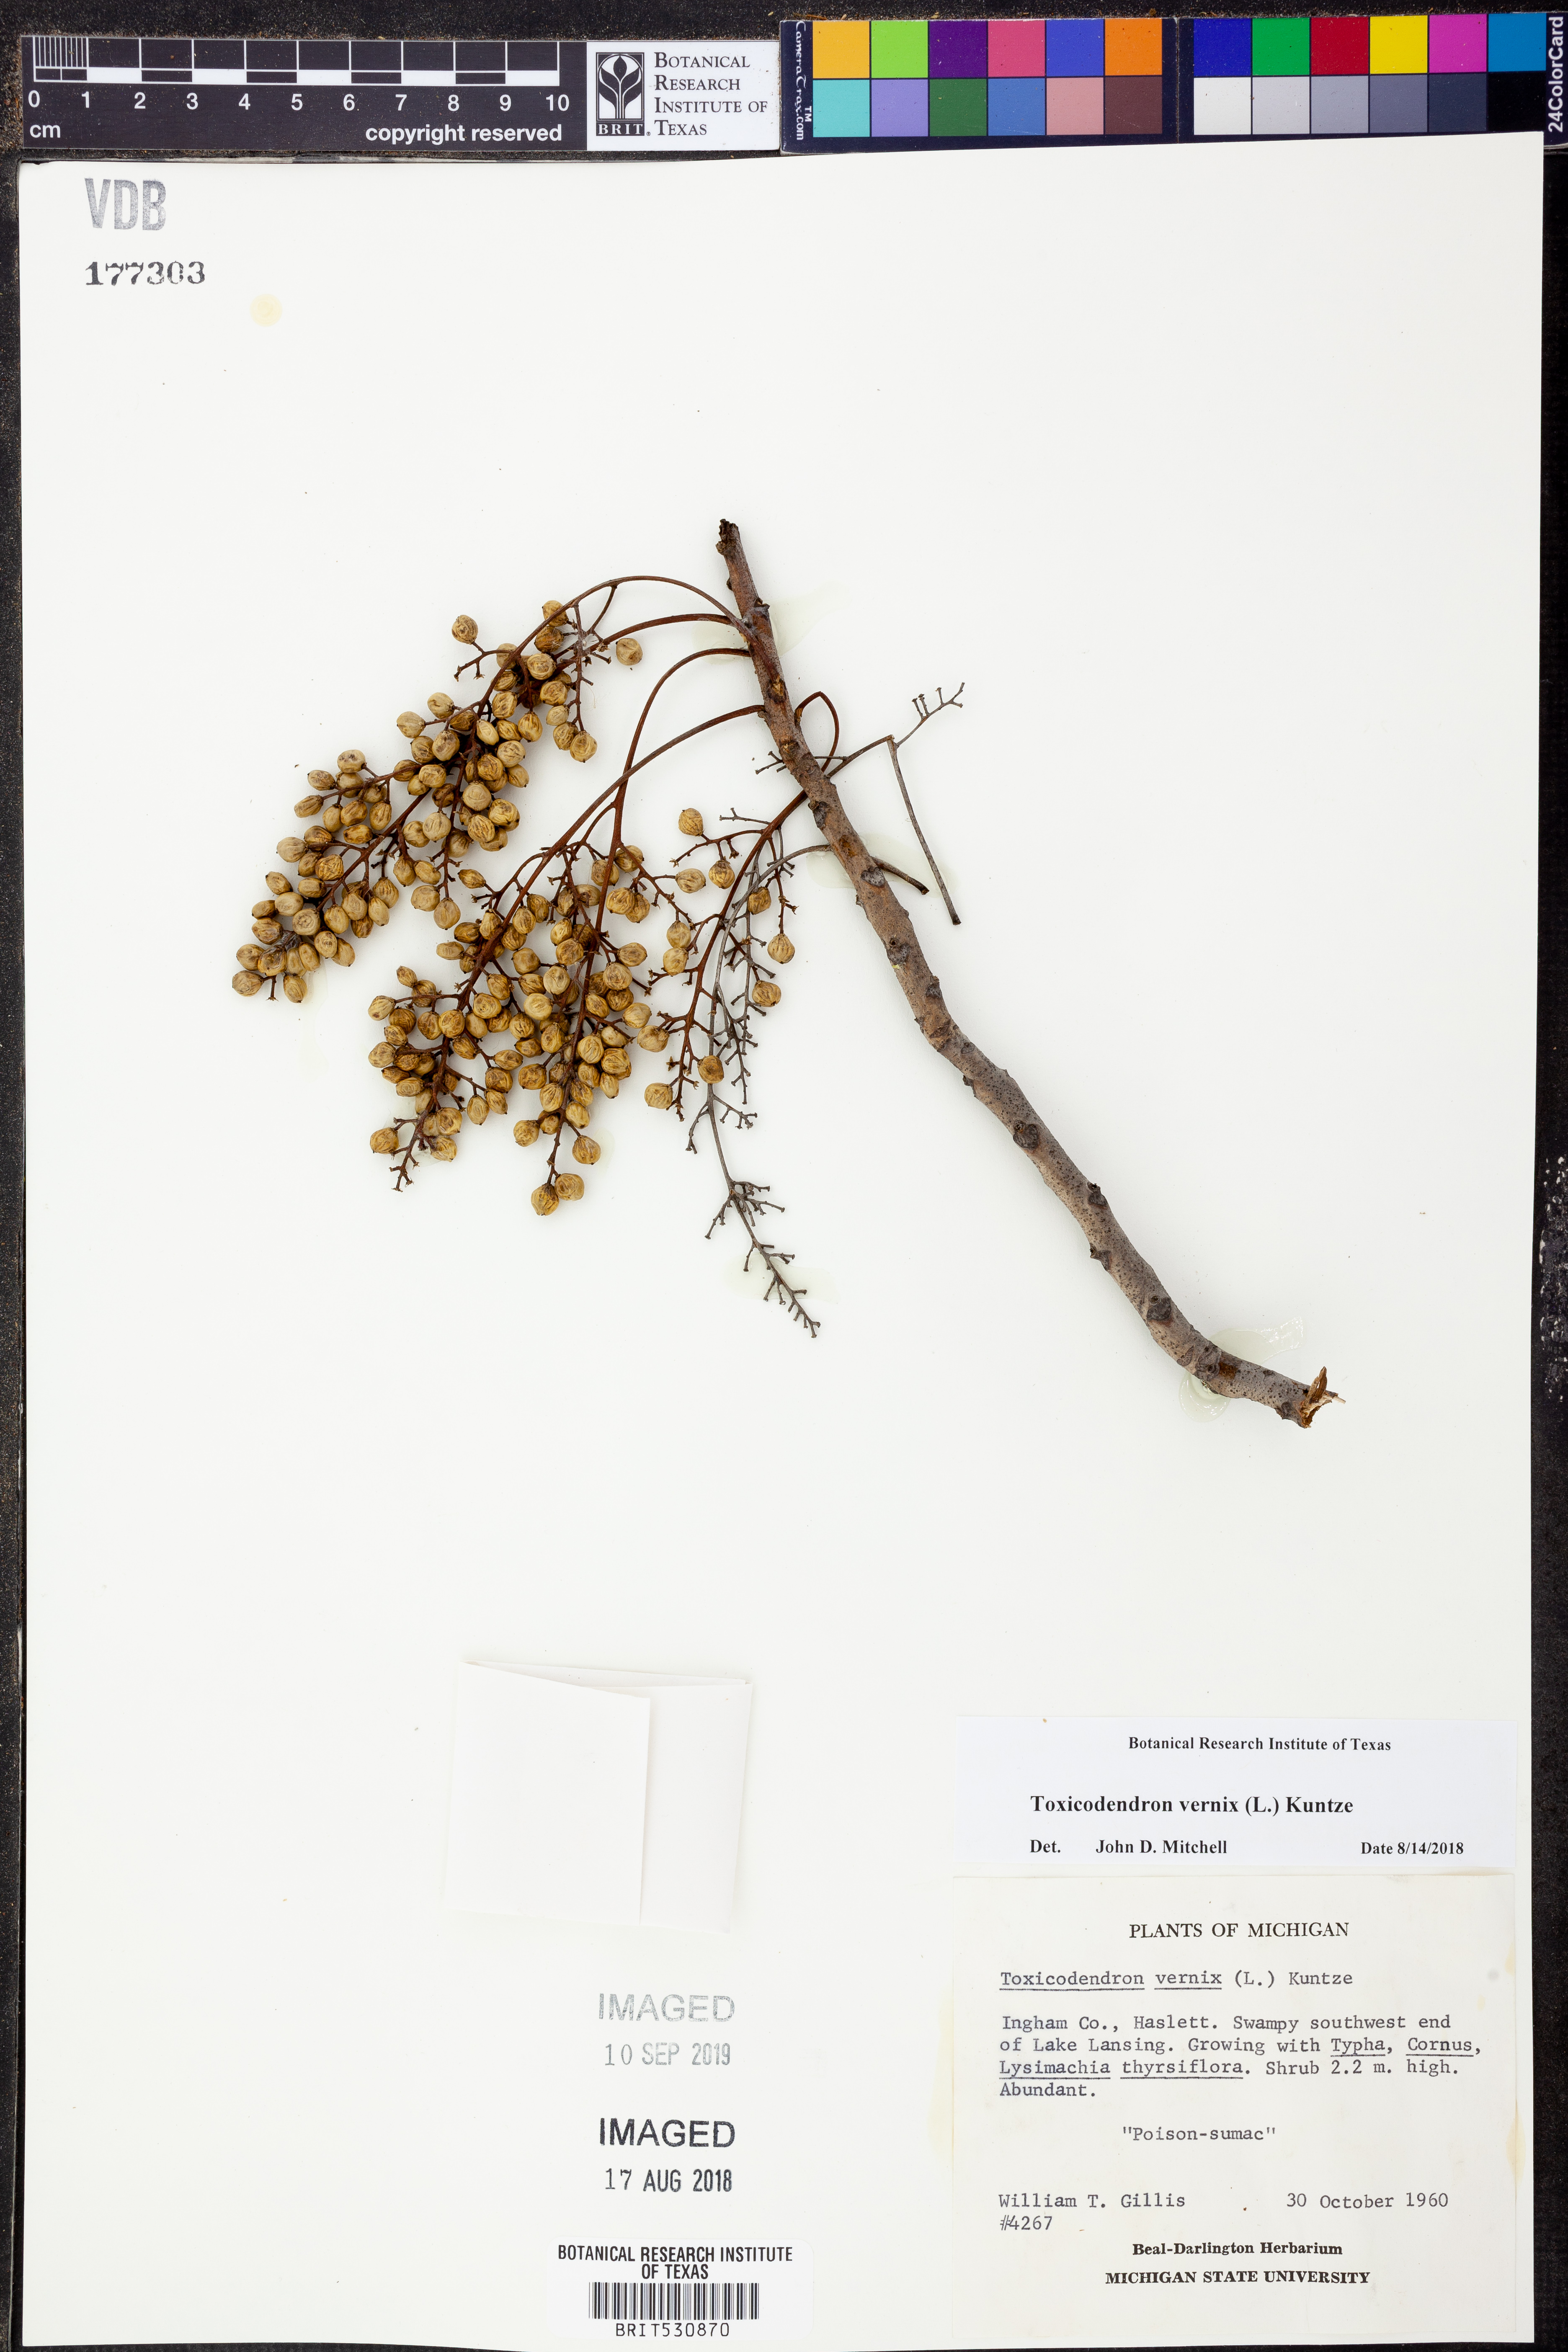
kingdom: Plantae
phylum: Tracheophyta
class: Magnoliopsida
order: Sapindales
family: Anacardiaceae
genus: Toxicodendron
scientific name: Toxicodendron vernix
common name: Poison sumac
